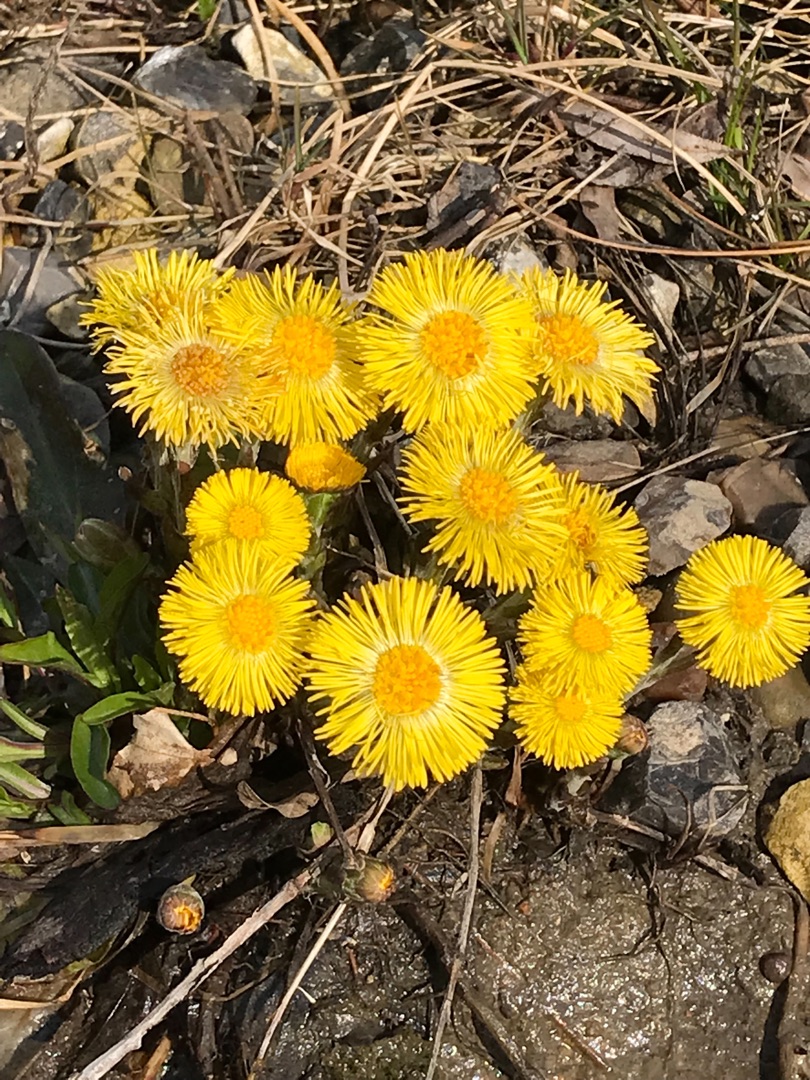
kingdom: Plantae
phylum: Tracheophyta
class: Magnoliopsida
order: Asterales
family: Asteraceae
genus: Tussilago
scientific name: Tussilago farfara
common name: Følfod
